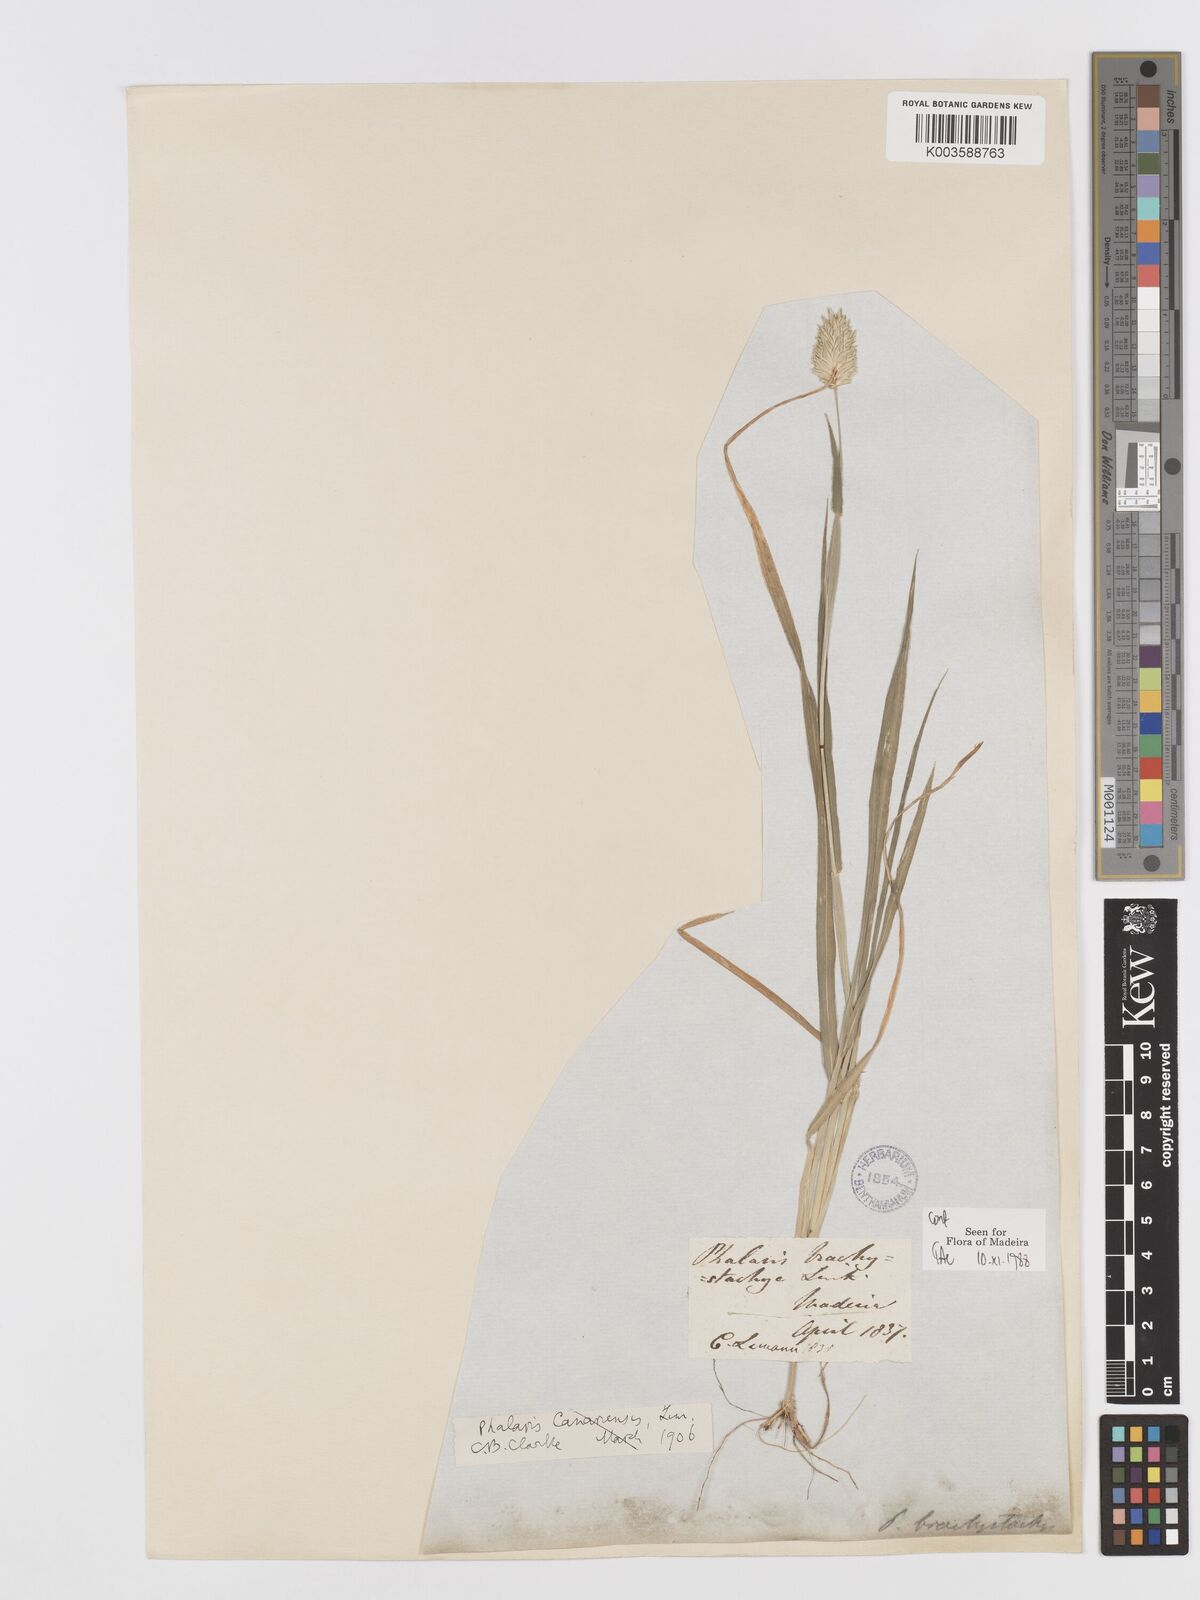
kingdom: Plantae
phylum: Tracheophyta
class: Liliopsida
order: Poales
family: Poaceae
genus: Phalaris
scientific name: Phalaris brachystachys
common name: Confused canary-grass
